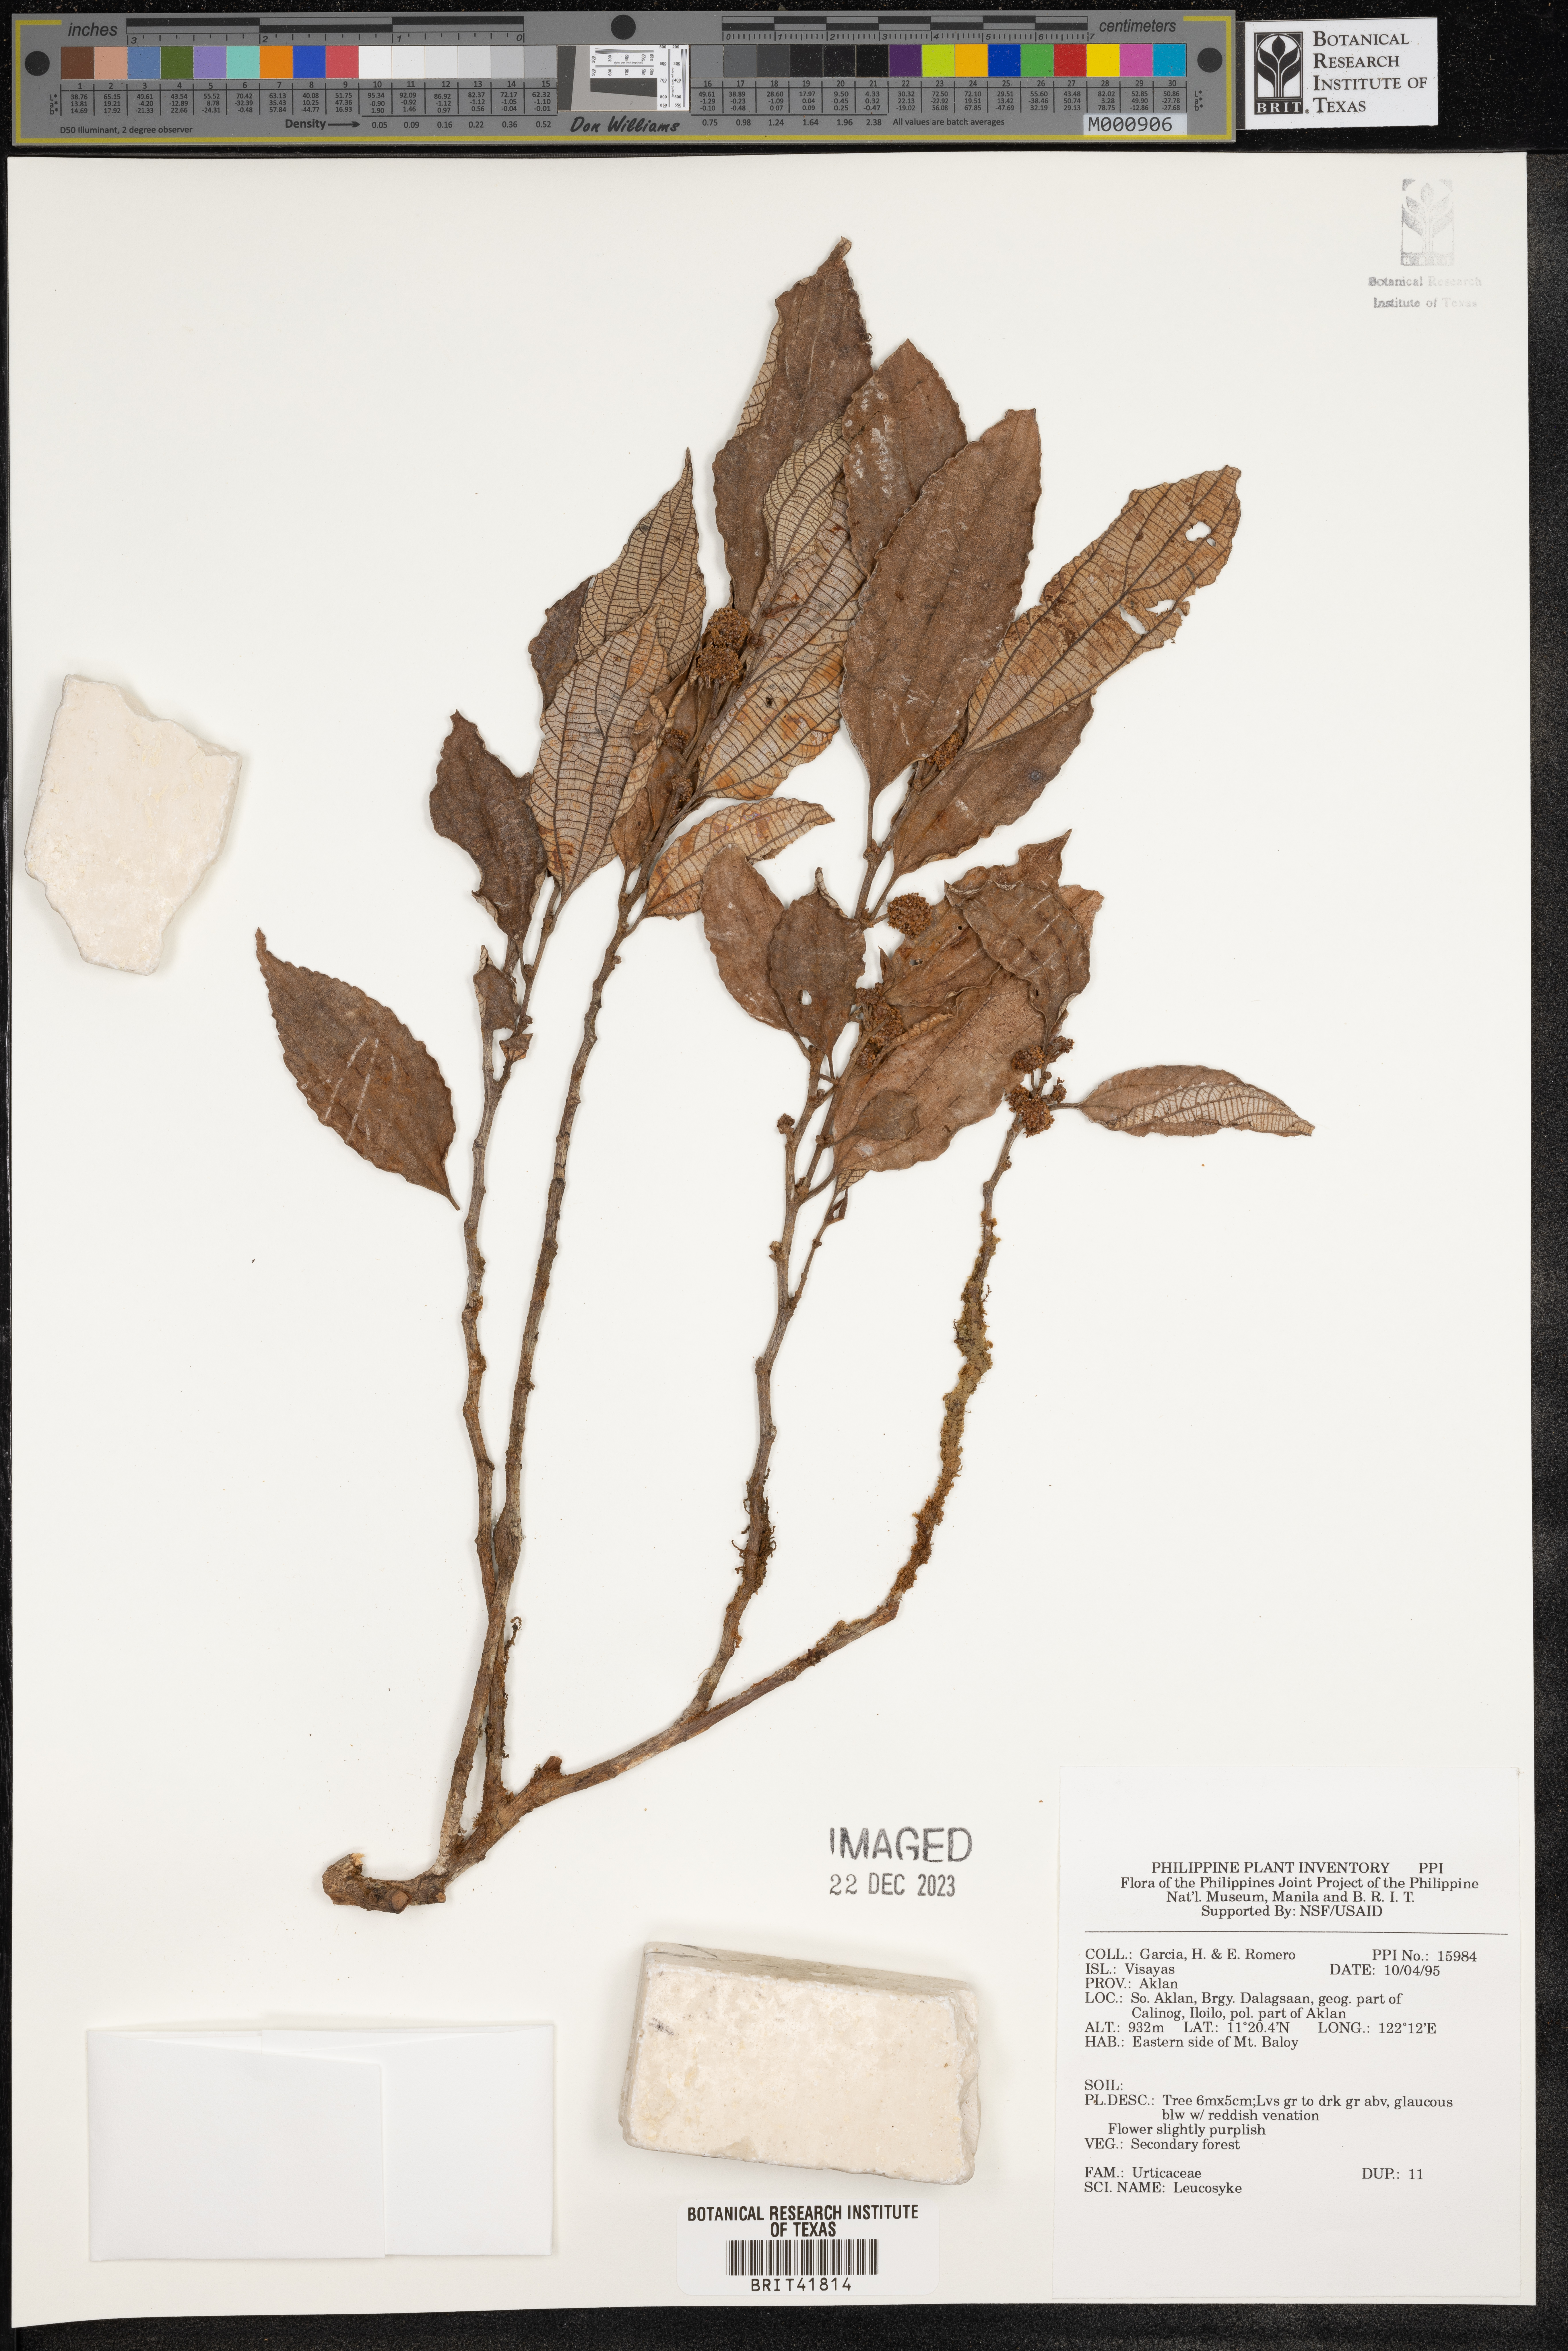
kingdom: Plantae
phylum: Tracheophyta
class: Magnoliopsida
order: Rosales
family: Urticaceae
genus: Leucosyke
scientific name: Leucosyke
